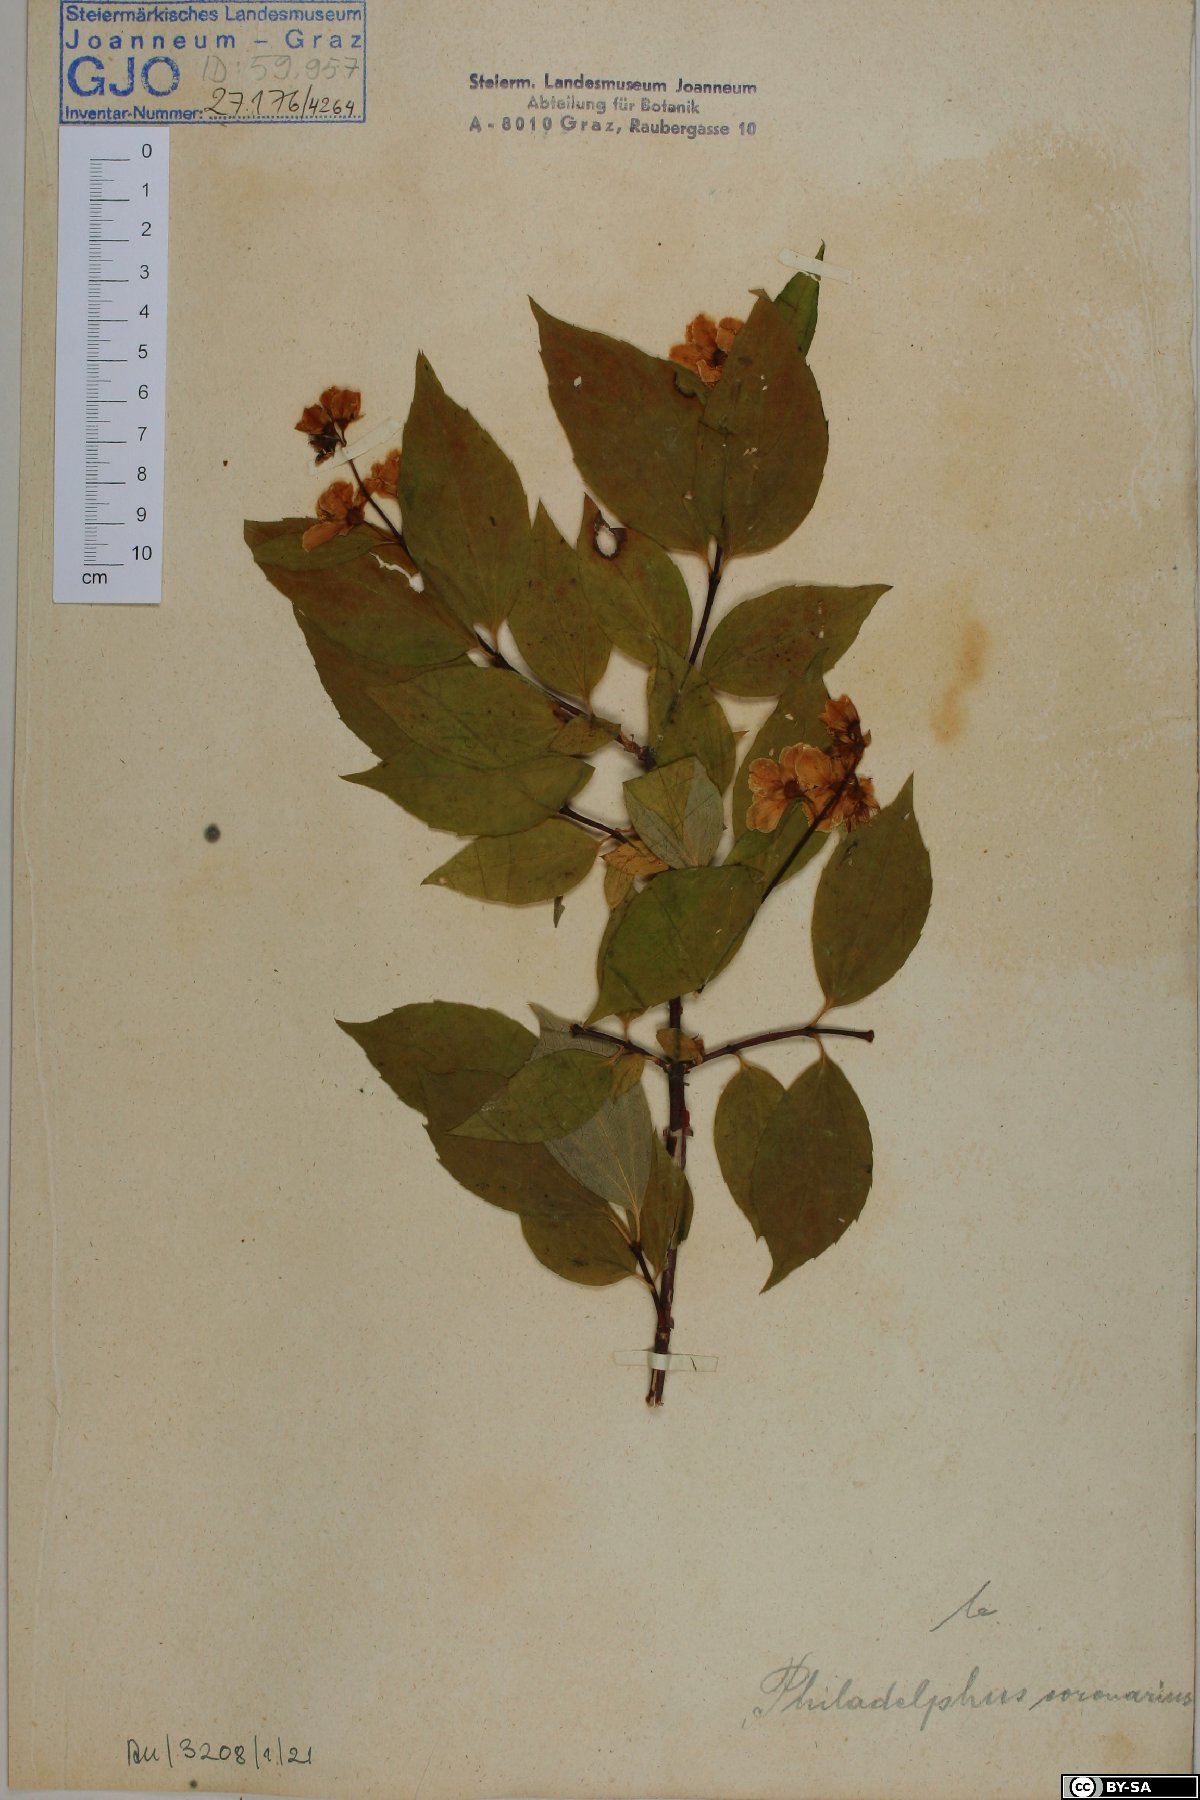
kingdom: Plantae
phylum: Tracheophyta
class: Magnoliopsida
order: Cornales
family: Hydrangeaceae
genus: Philadelphus
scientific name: Philadelphus coronarius
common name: Mock orange
